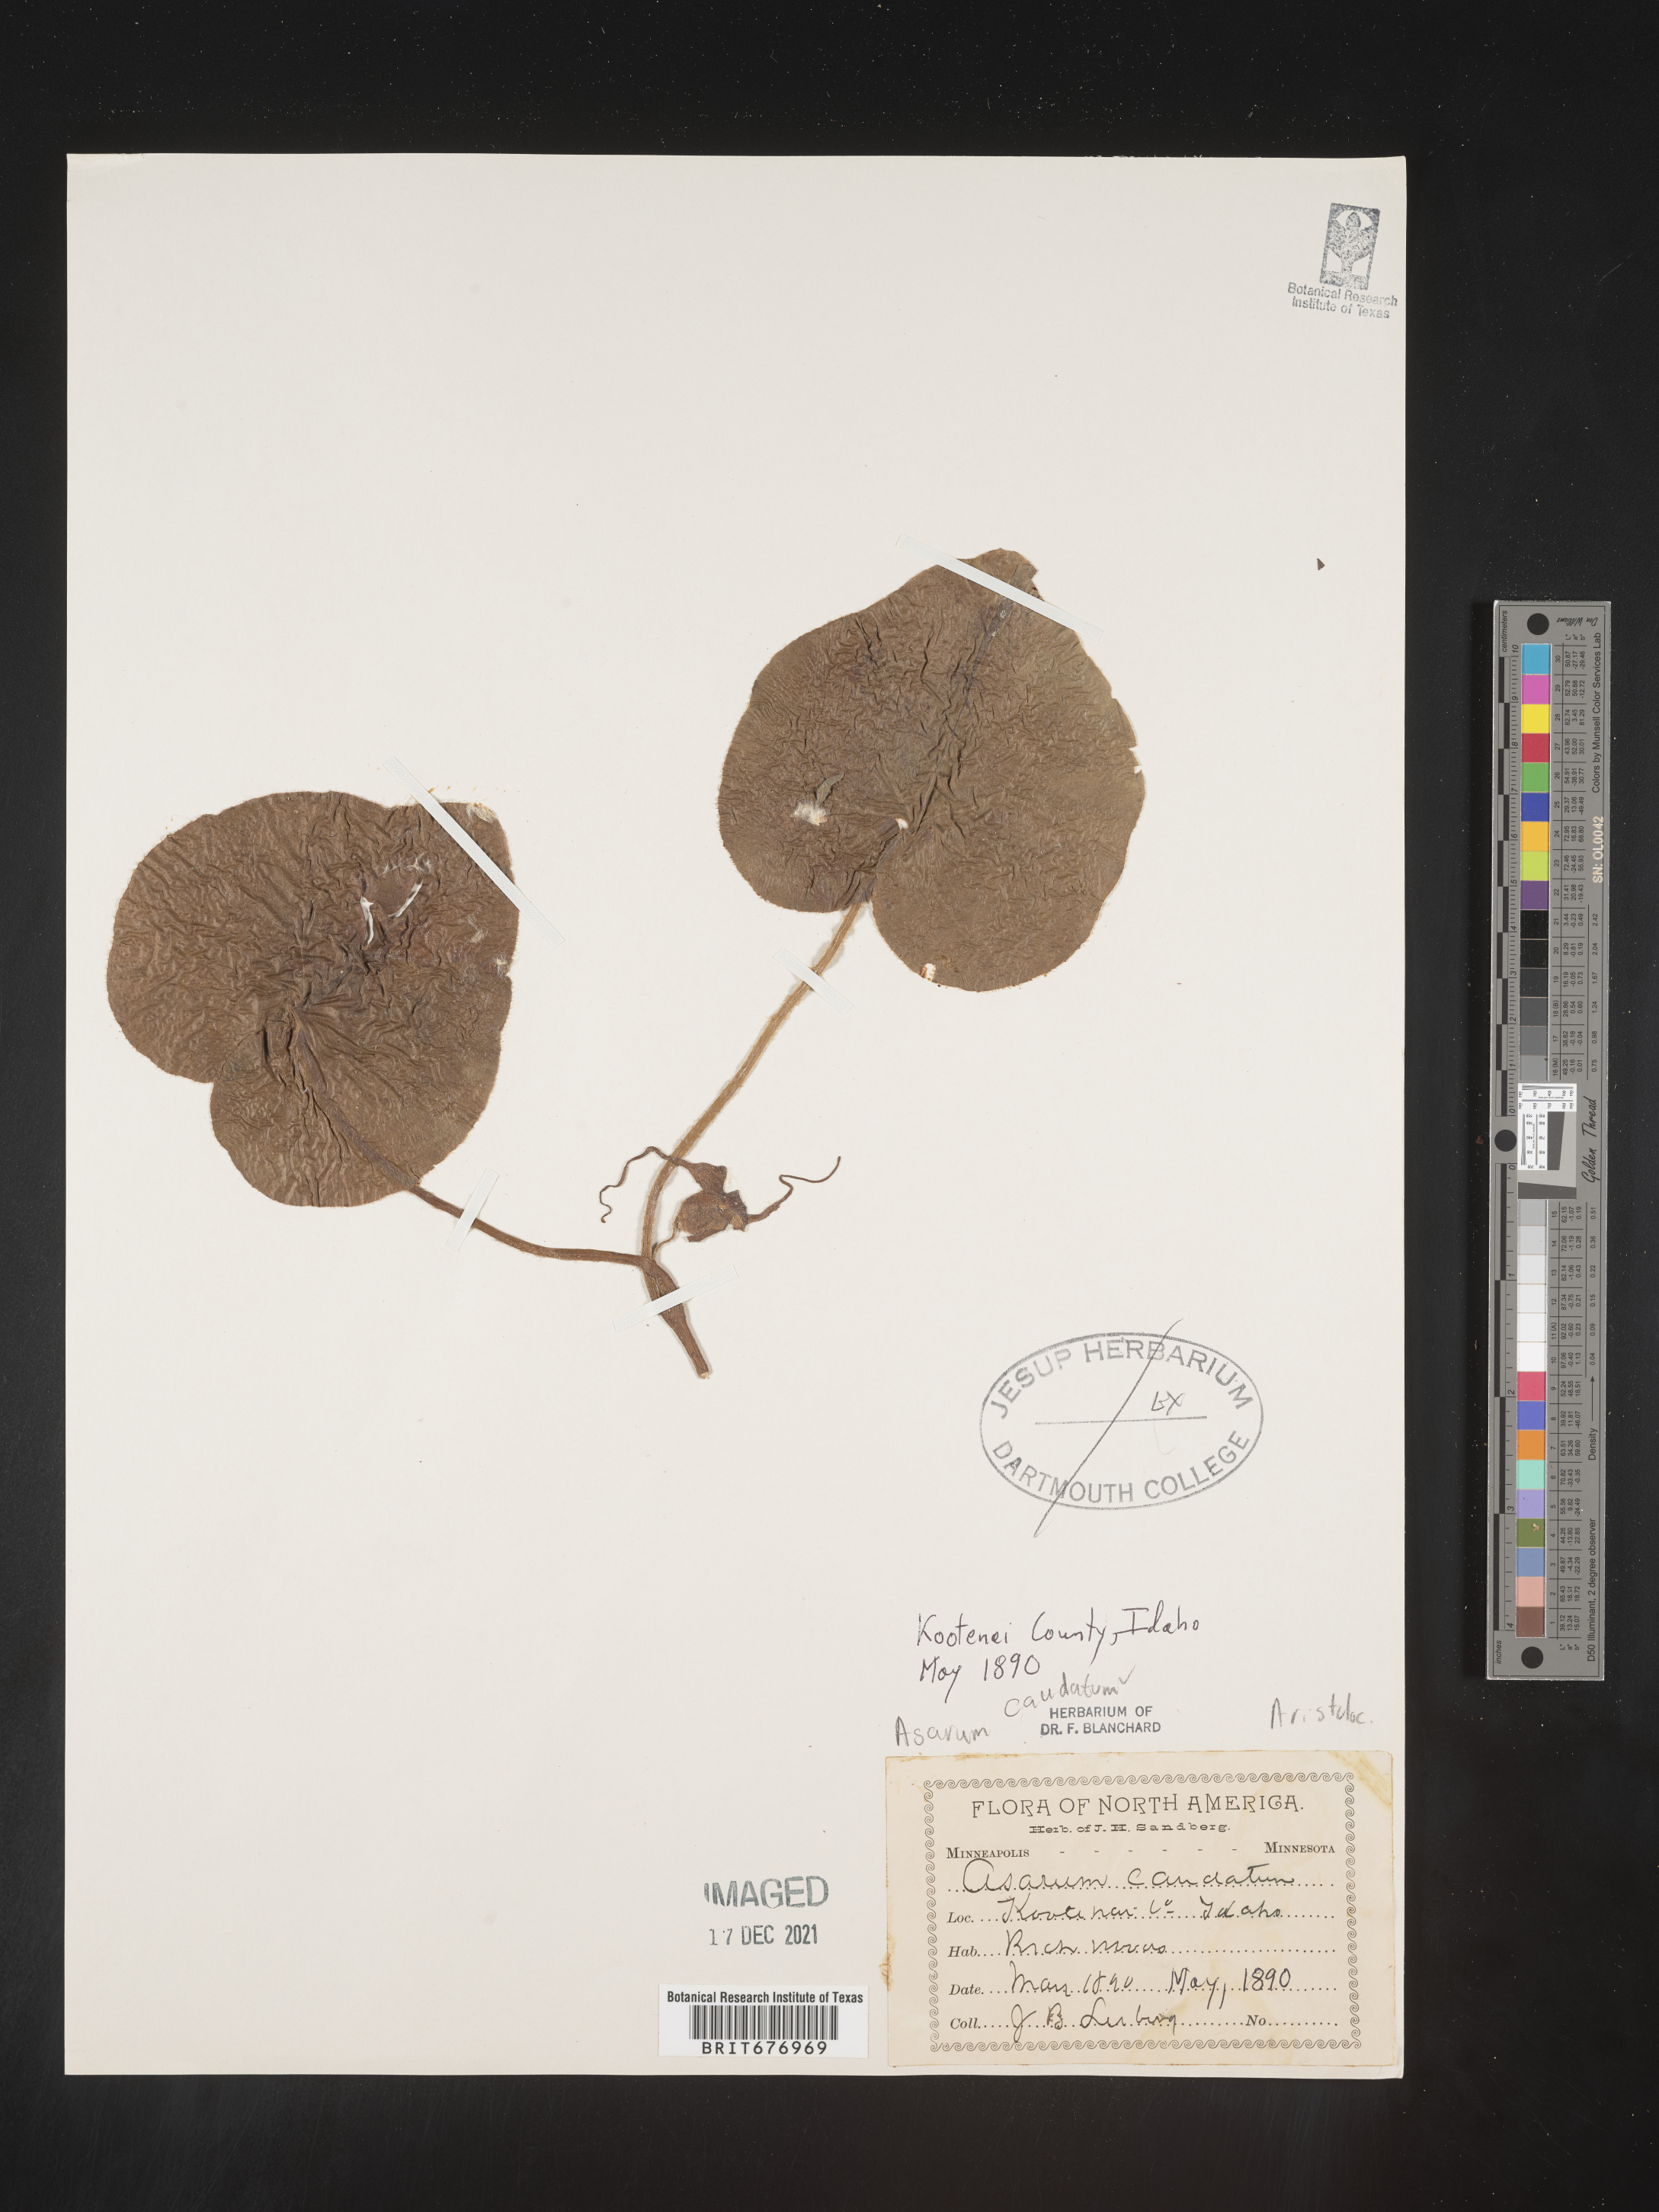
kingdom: Plantae
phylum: Tracheophyta
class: Magnoliopsida
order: Piperales
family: Aristolochiaceae
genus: Asarum
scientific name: Asarum caudatum
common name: Wild ginger
